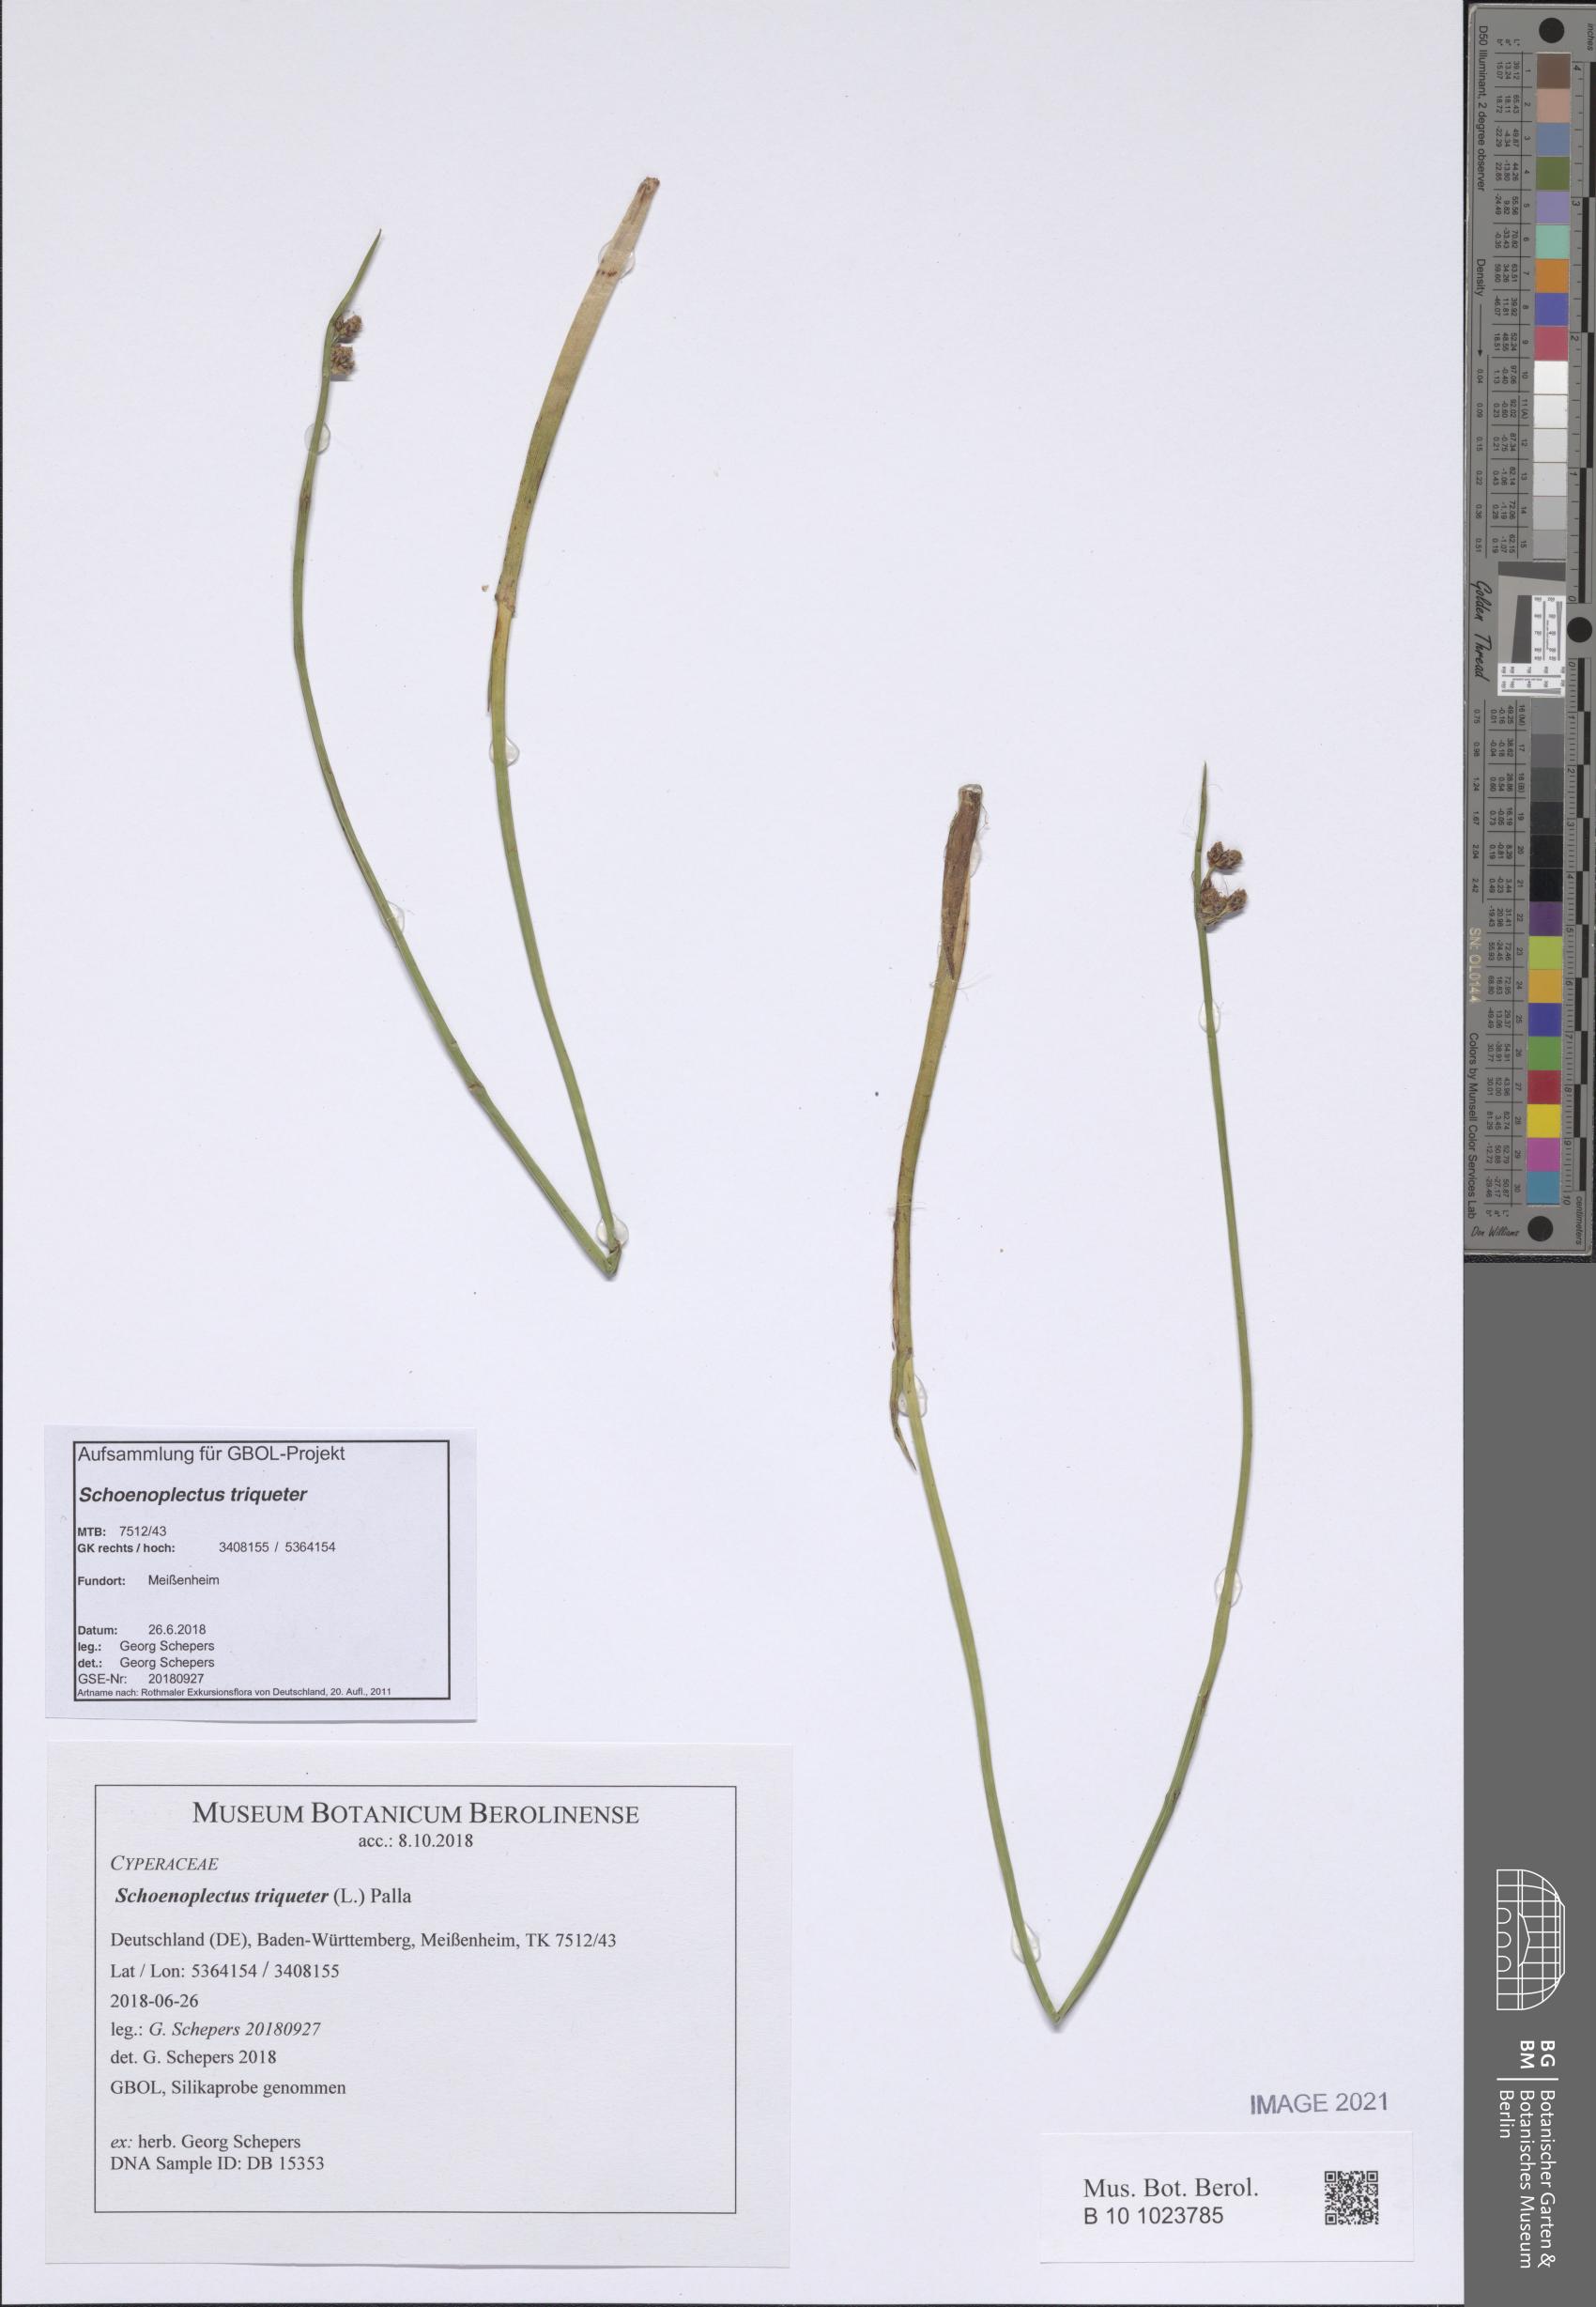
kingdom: Plantae
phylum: Tracheophyta
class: Liliopsida
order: Poales
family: Cyperaceae
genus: Schoenoplectus
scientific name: Schoenoplectus triqueter
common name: Triangular club-rush
